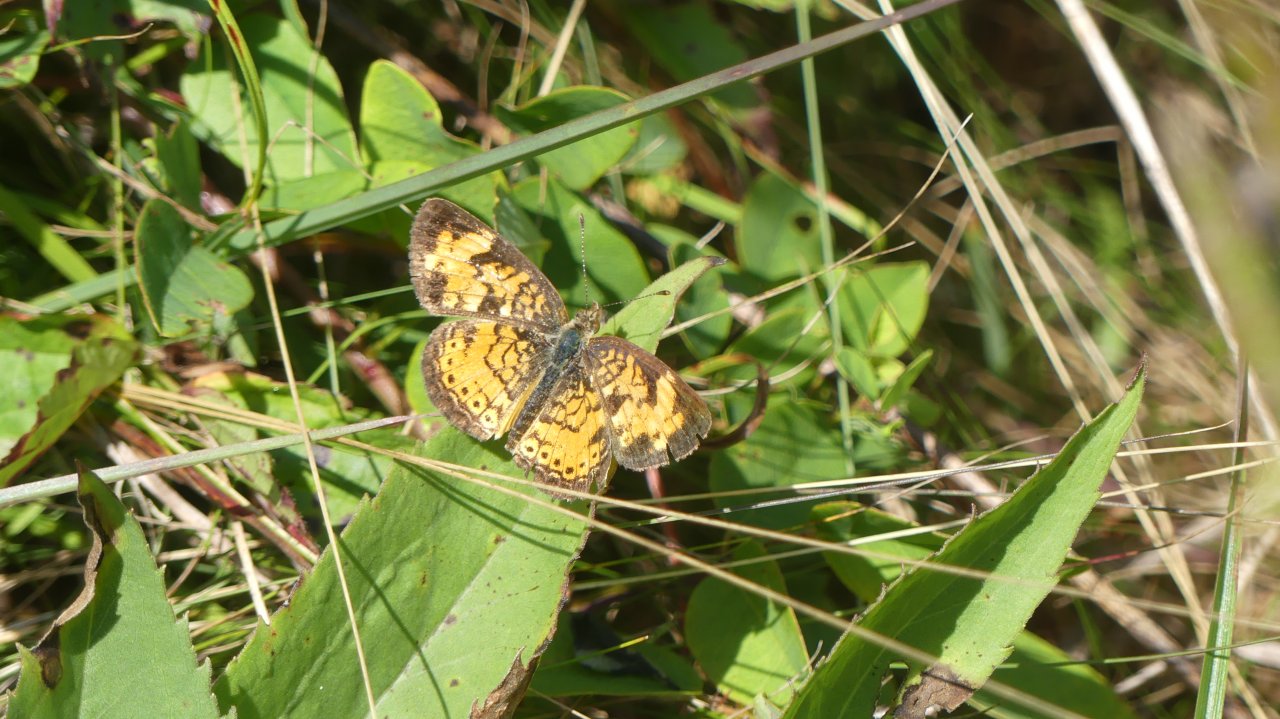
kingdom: Animalia
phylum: Arthropoda
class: Insecta
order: Lepidoptera
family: Nymphalidae
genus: Phyciodes
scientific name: Phyciodes tharos
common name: Pearl Crescent
